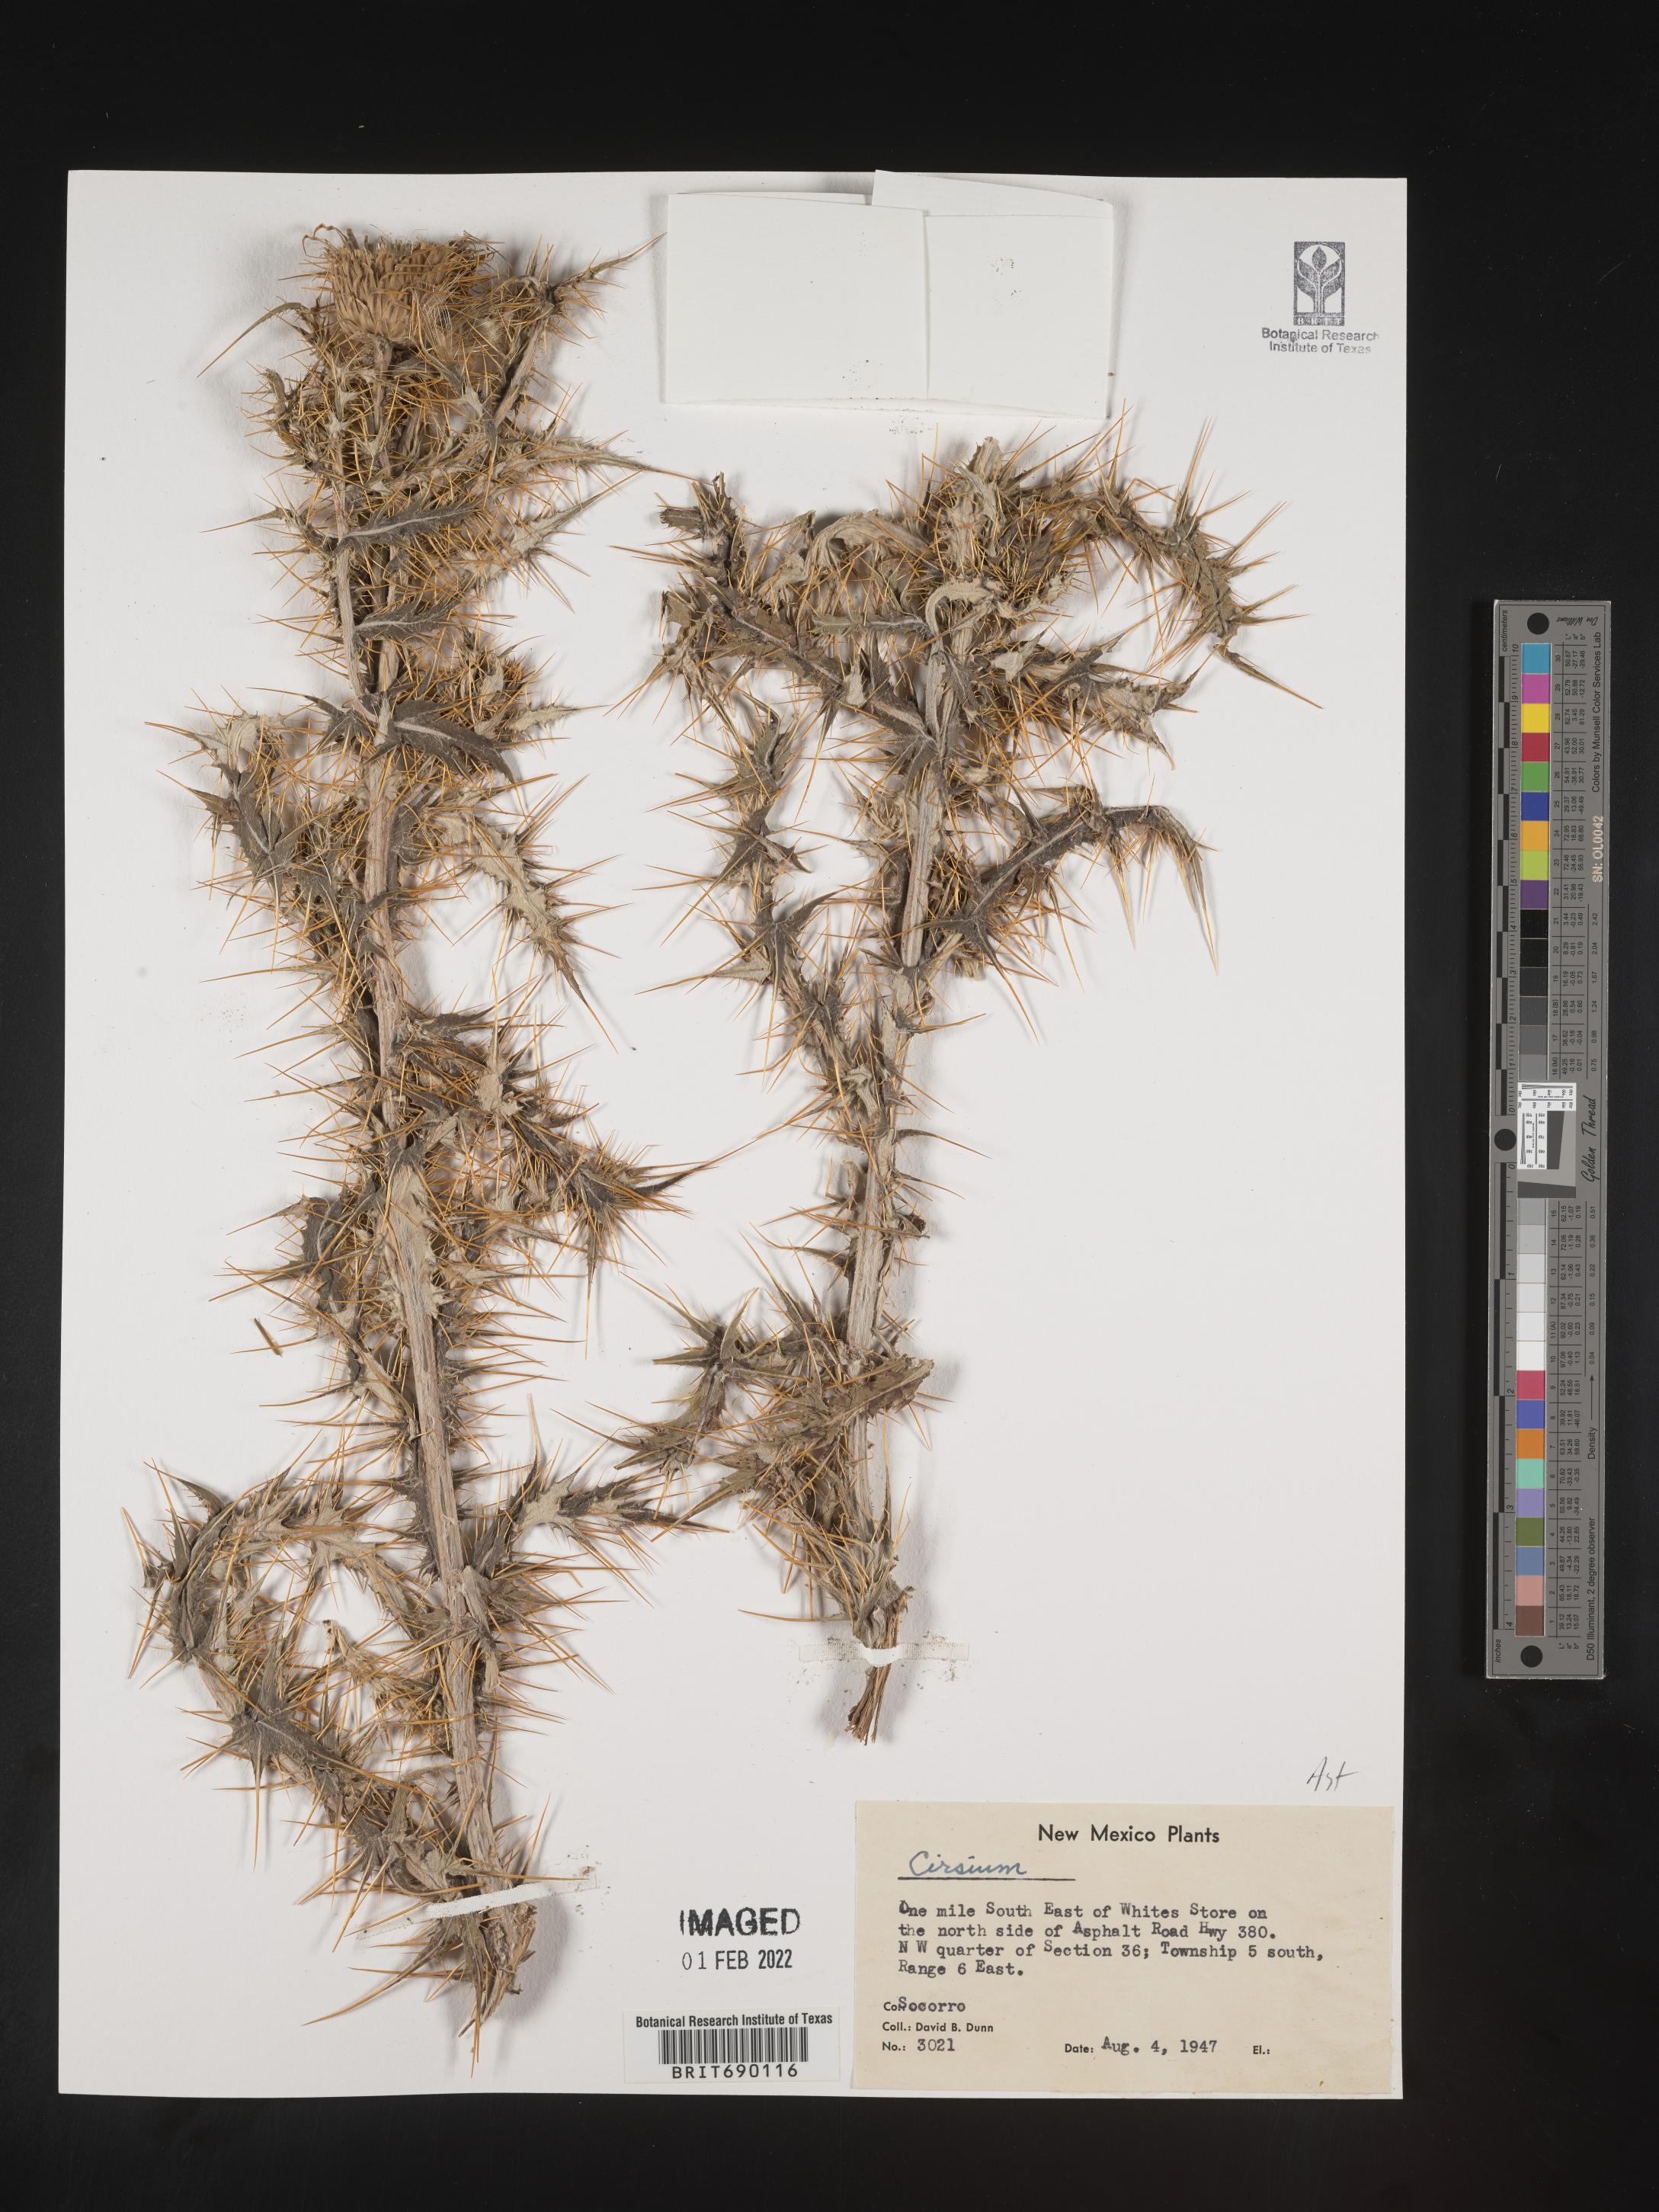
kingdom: Plantae
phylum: Tracheophyta
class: Magnoliopsida
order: Asterales
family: Asteraceae
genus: Cirsium
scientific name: Cirsium
